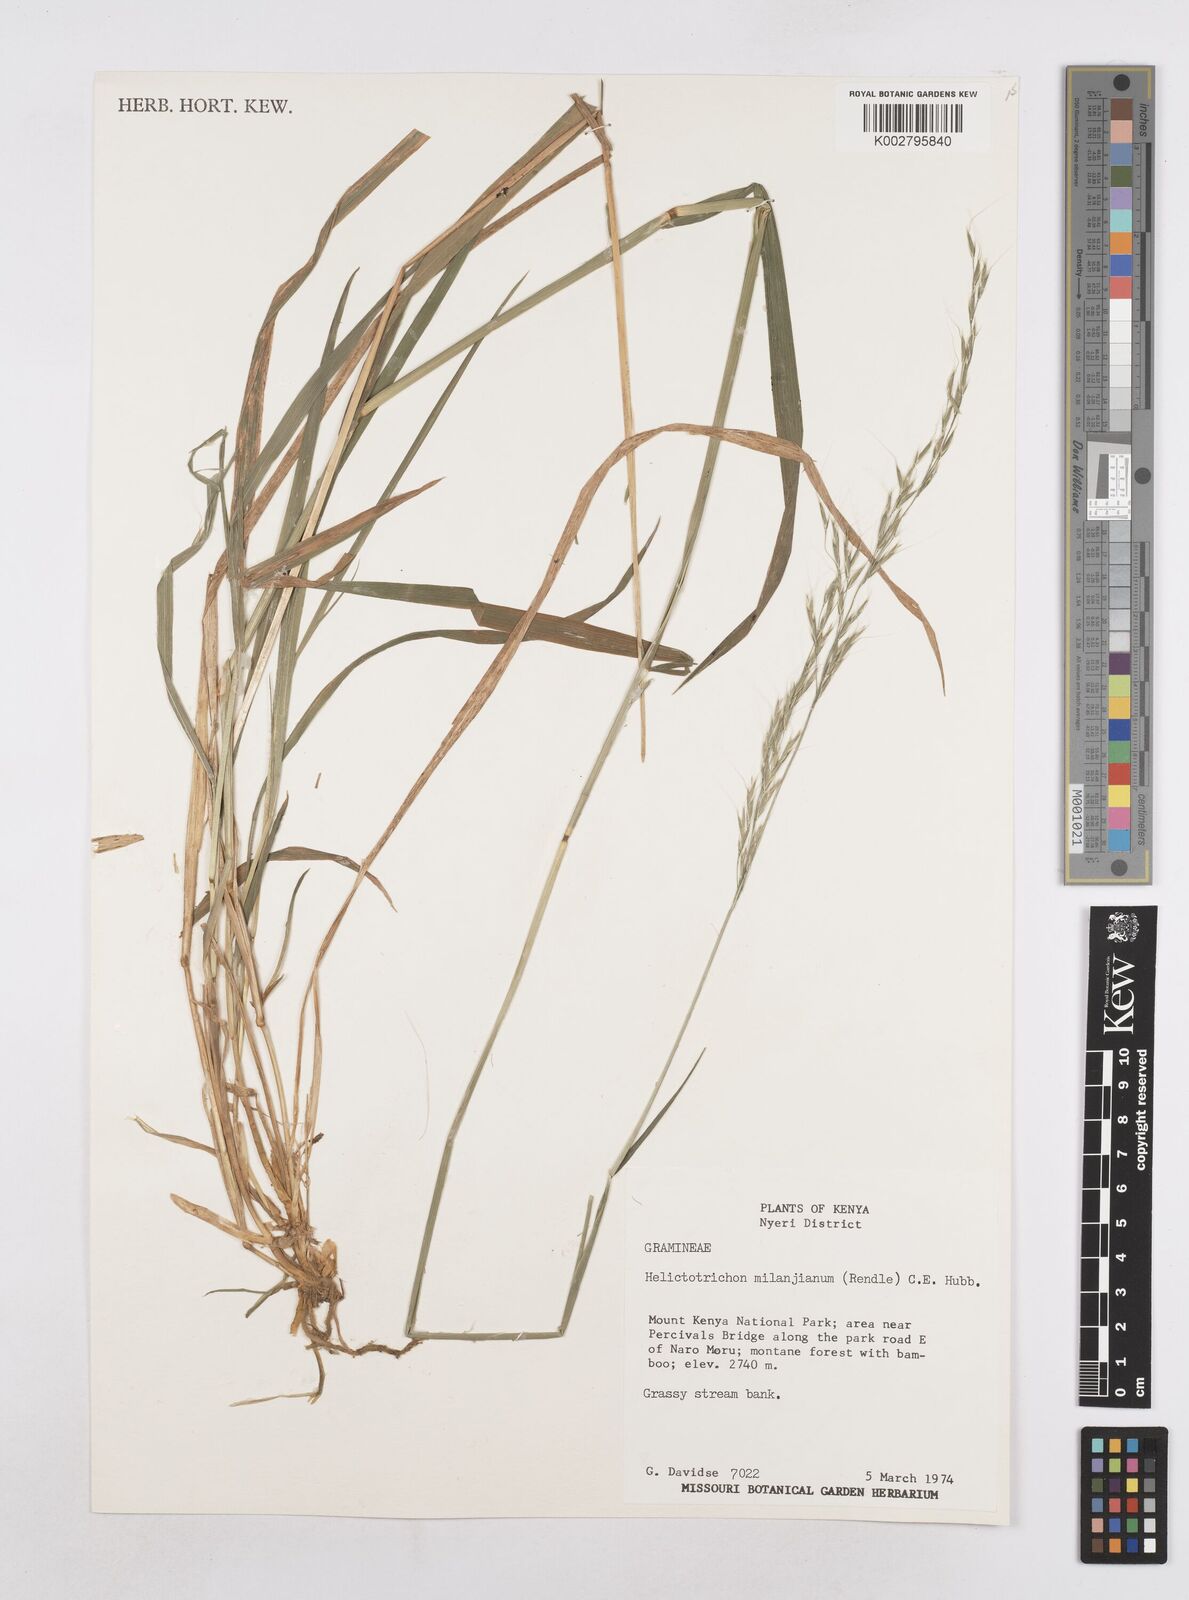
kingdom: Plantae
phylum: Tracheophyta
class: Liliopsida
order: Poales
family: Poaceae
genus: Trisetopsis
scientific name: Trisetopsis milanjiana
